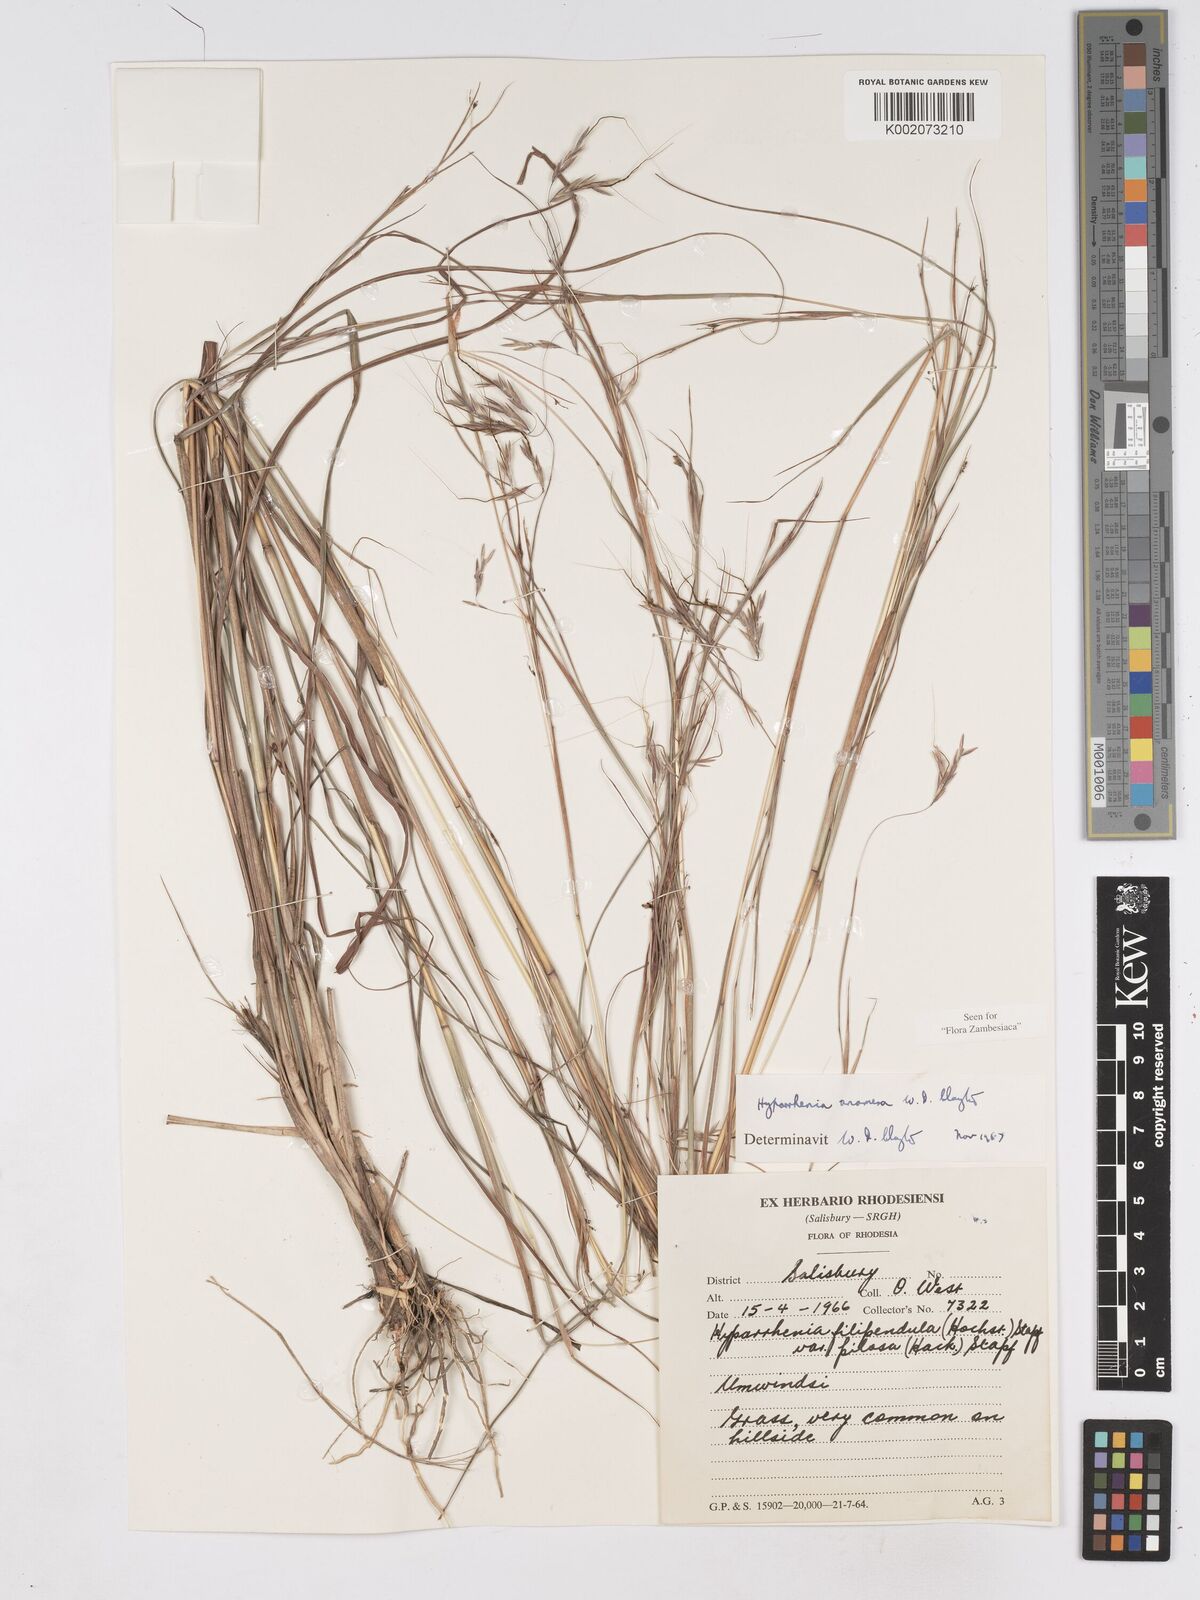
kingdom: Plantae
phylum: Tracheophyta
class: Liliopsida
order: Poales
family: Poaceae
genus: Hyparrhenia
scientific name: Hyparrhenia anamesa
